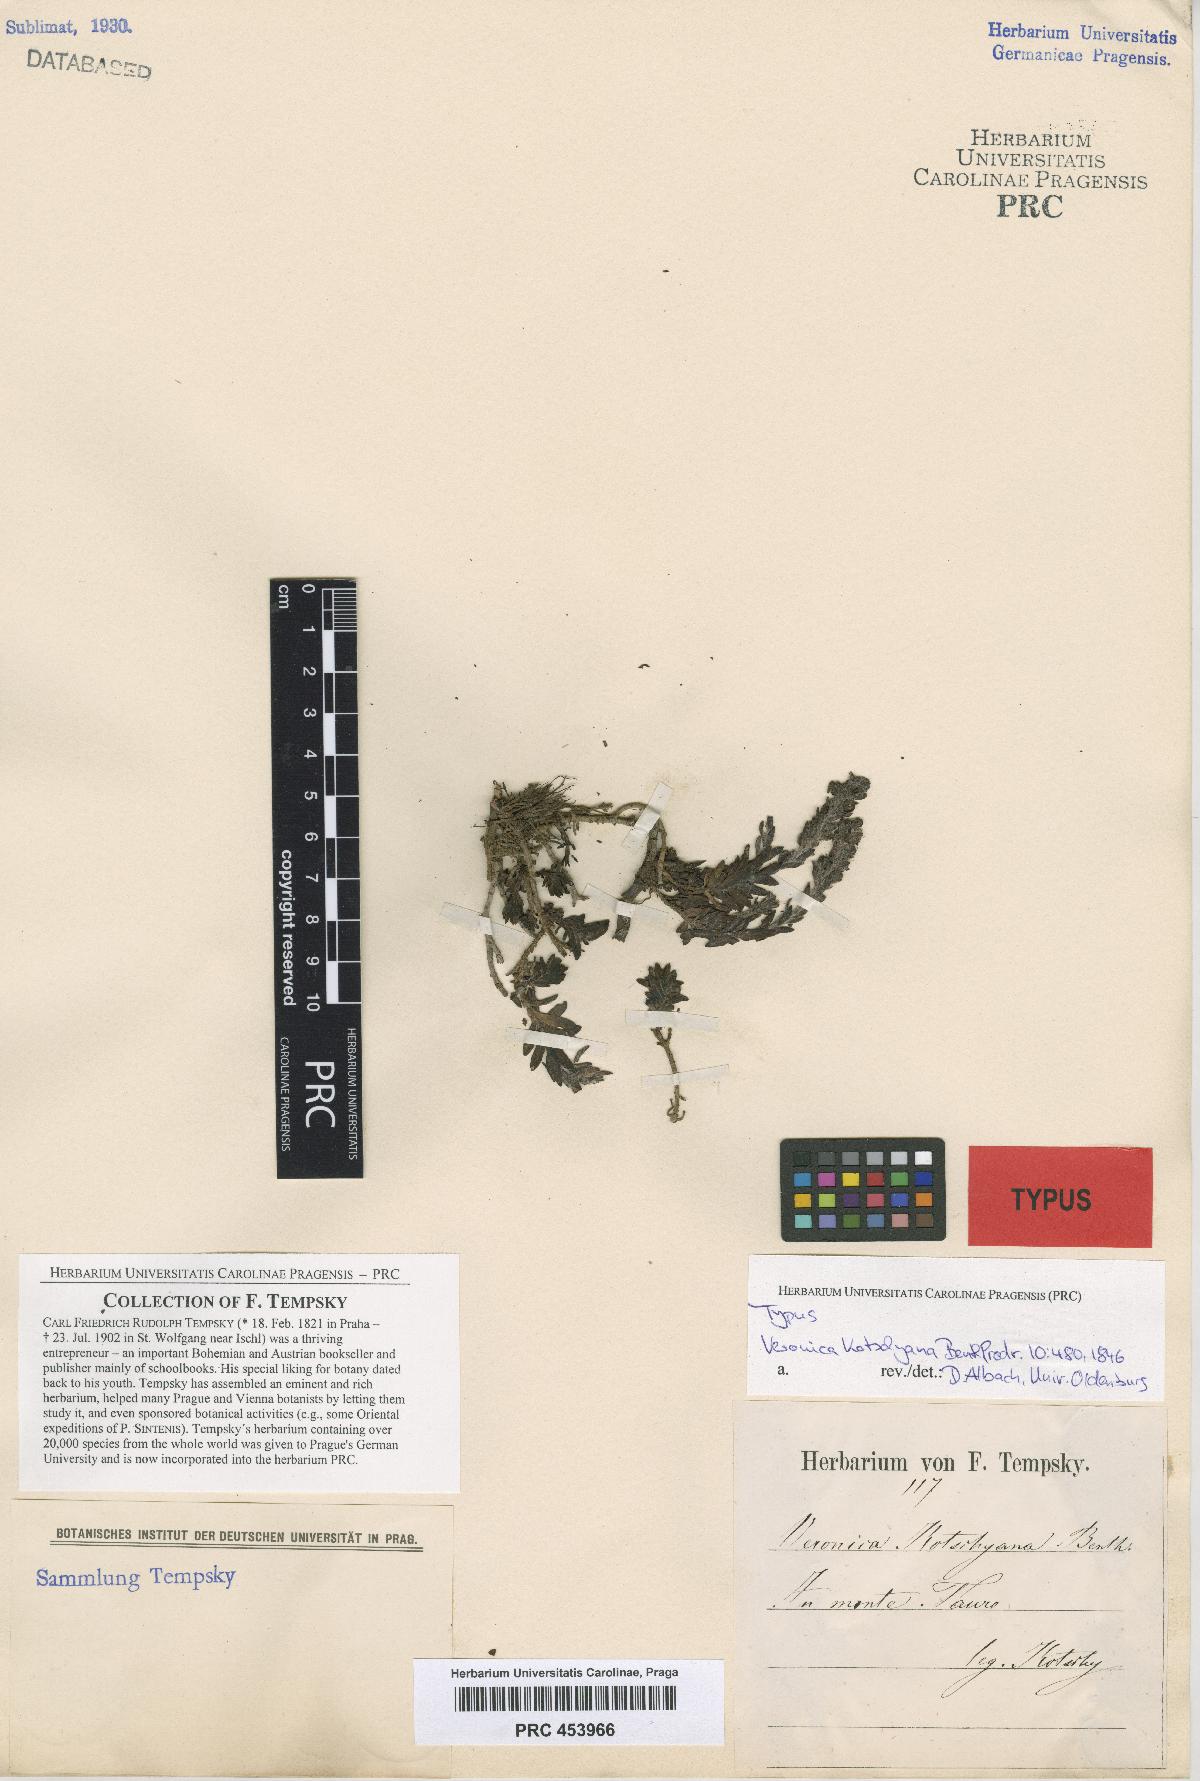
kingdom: Plantae
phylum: Tracheophyta
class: Magnoliopsida
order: Lamiales
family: Plantaginaceae
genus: Veronica
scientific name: Veronica kotschyana
